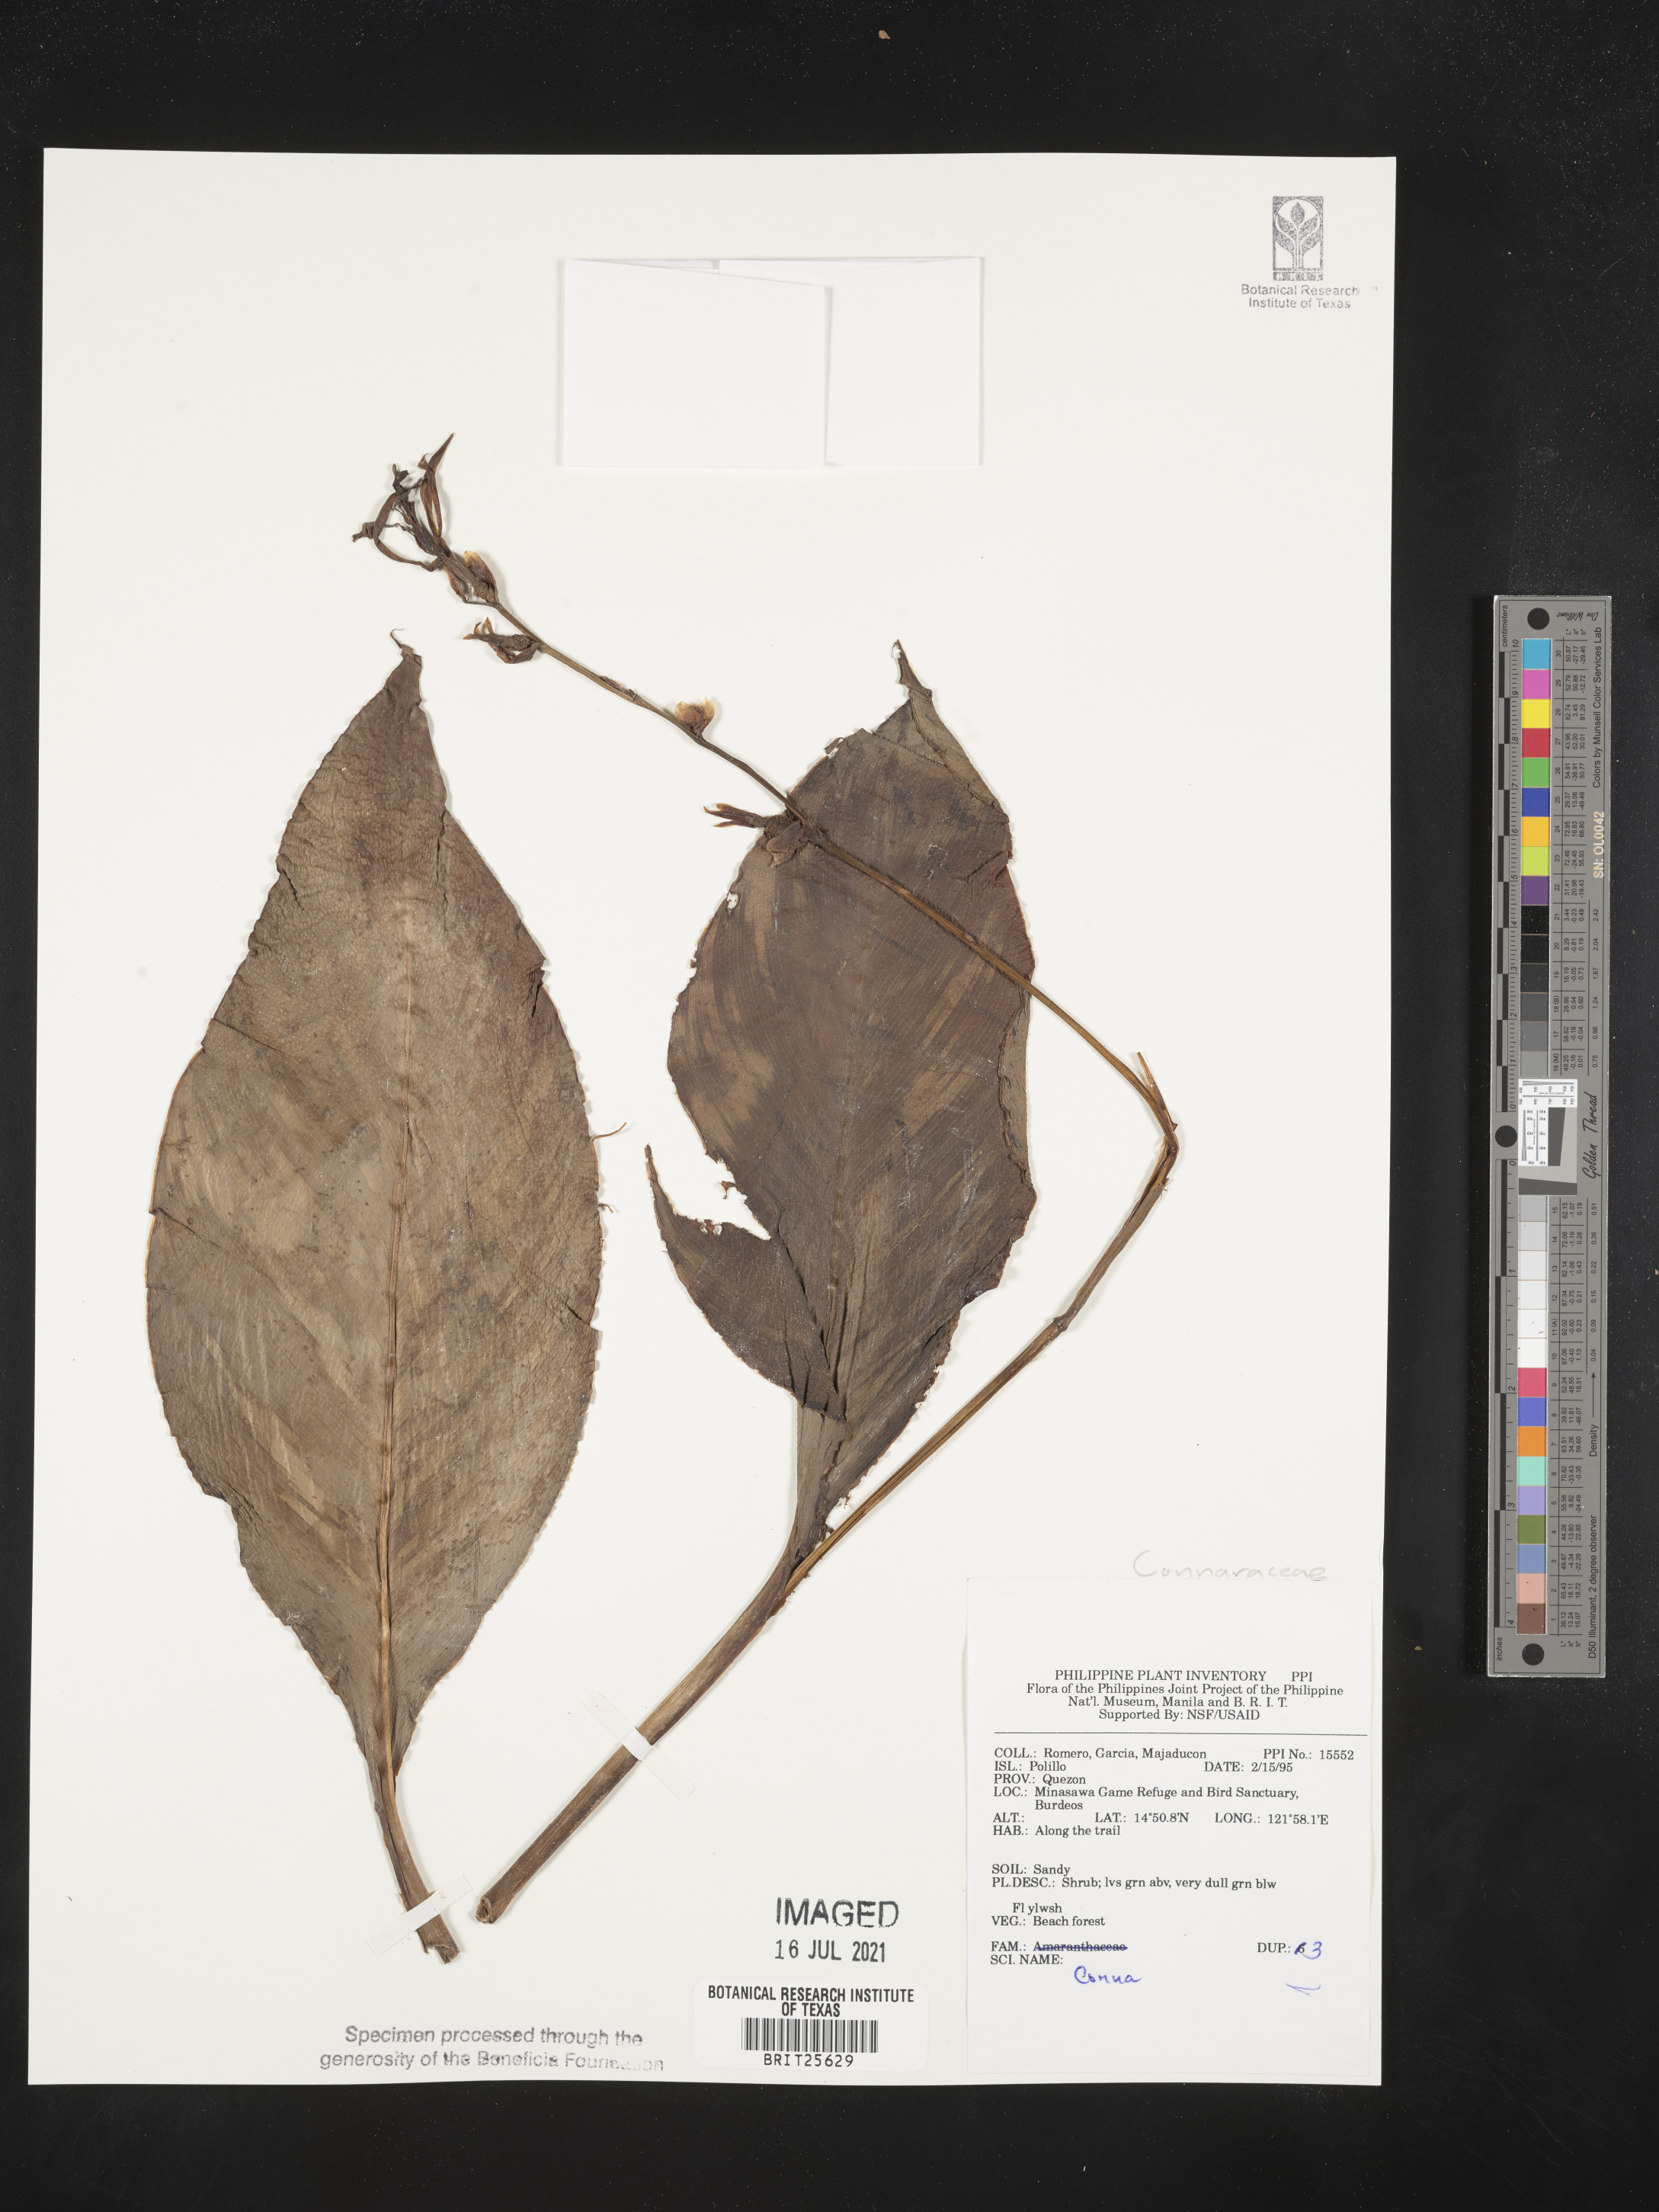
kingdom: Plantae
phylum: Tracheophyta
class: Magnoliopsida
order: Oxalidales
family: Connaraceae
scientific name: Connaraceae
